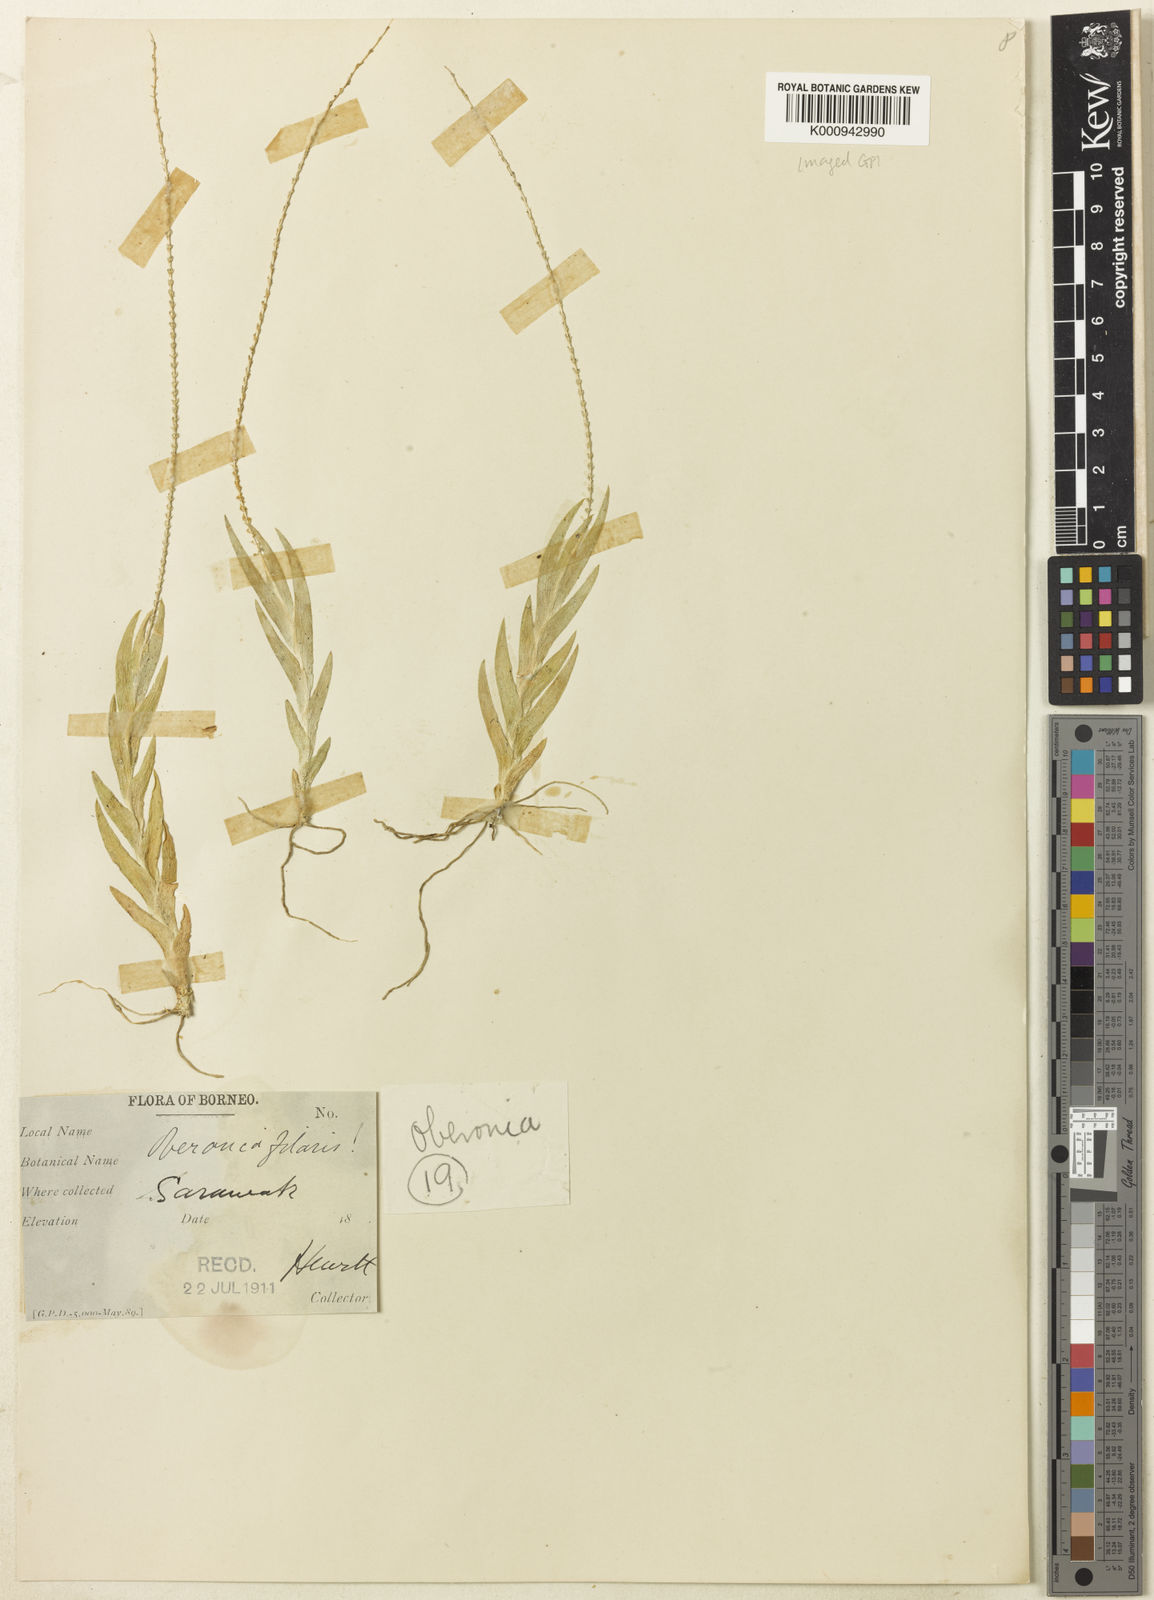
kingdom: Plantae
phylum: Tracheophyta
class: Liliopsida
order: Asparagales
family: Orchidaceae
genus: Oberonia
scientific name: Oberonia filaris
